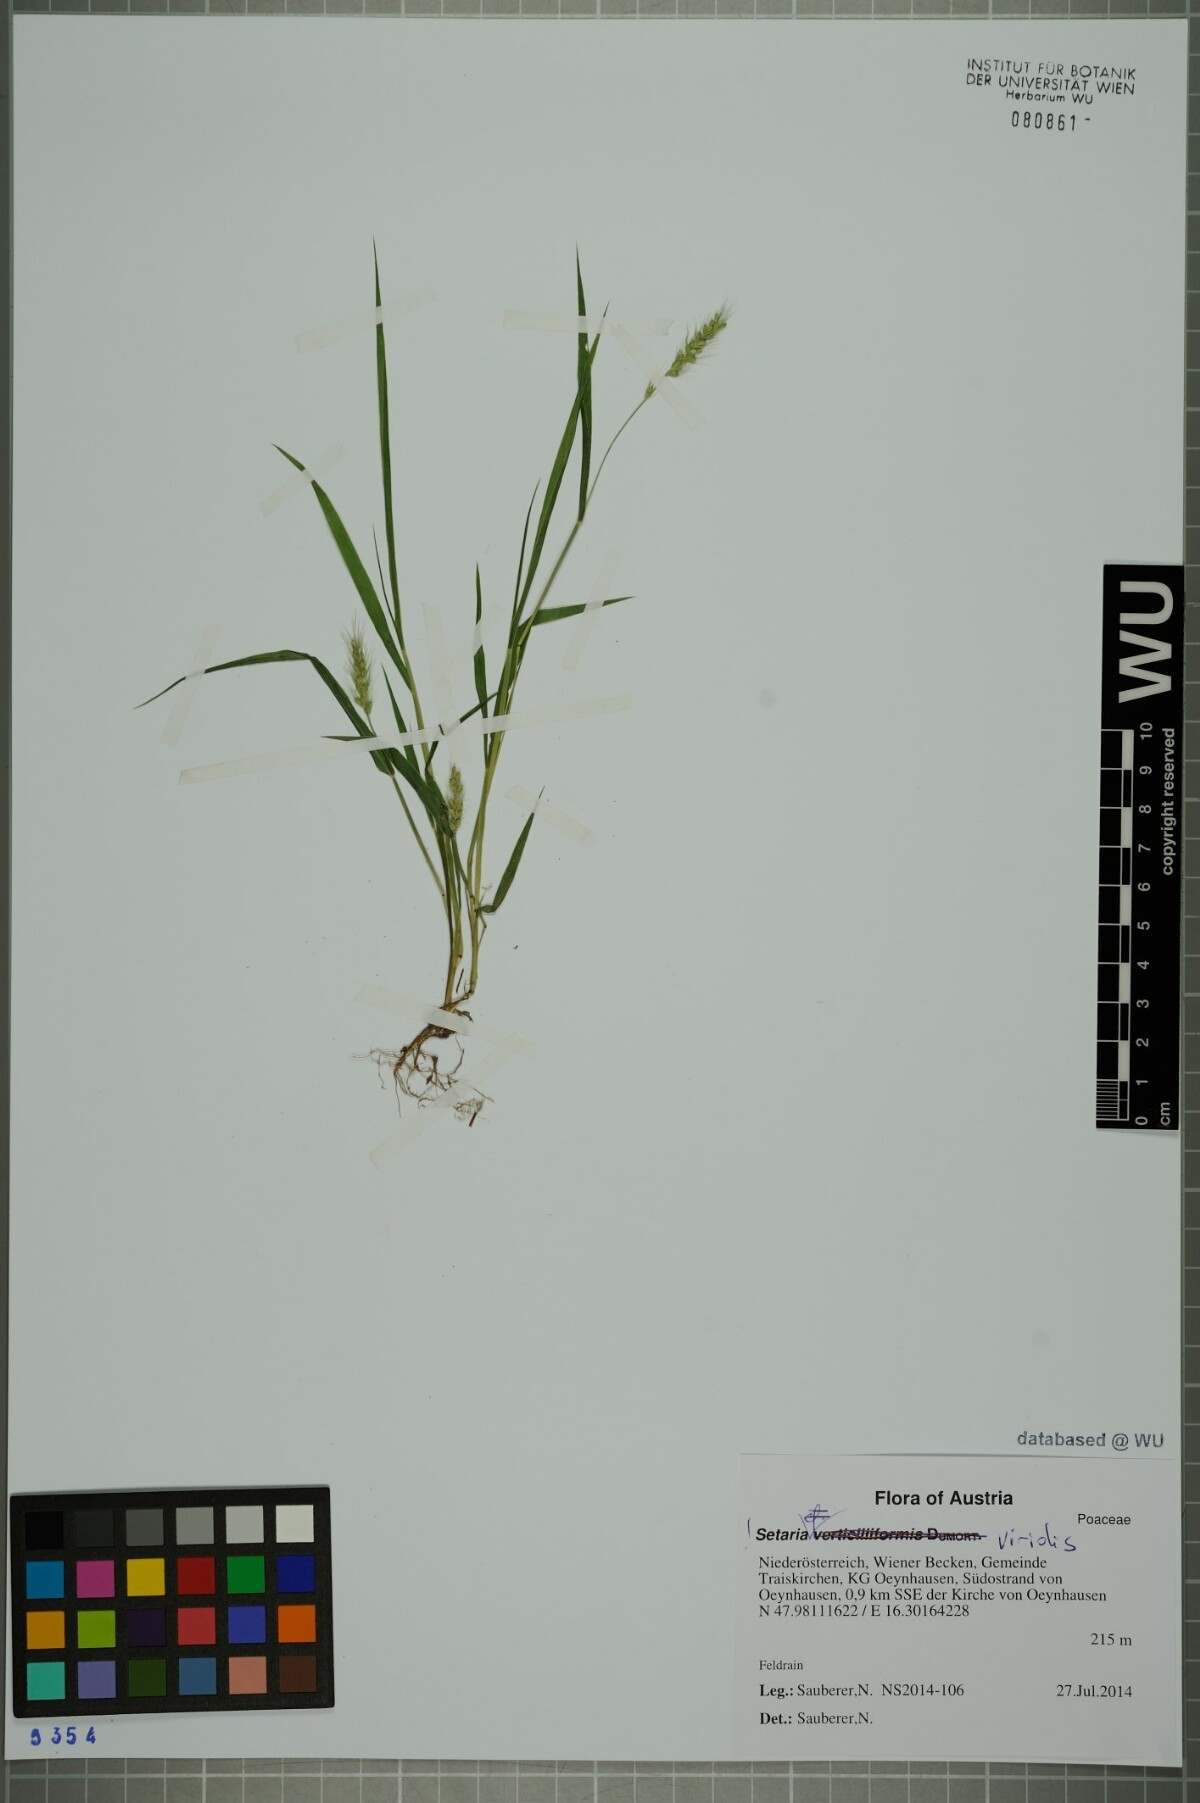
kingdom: Plantae
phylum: Tracheophyta
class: Liliopsida
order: Poales
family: Poaceae
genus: Setaria
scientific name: Setaria viridis
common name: Green bristlegrass
